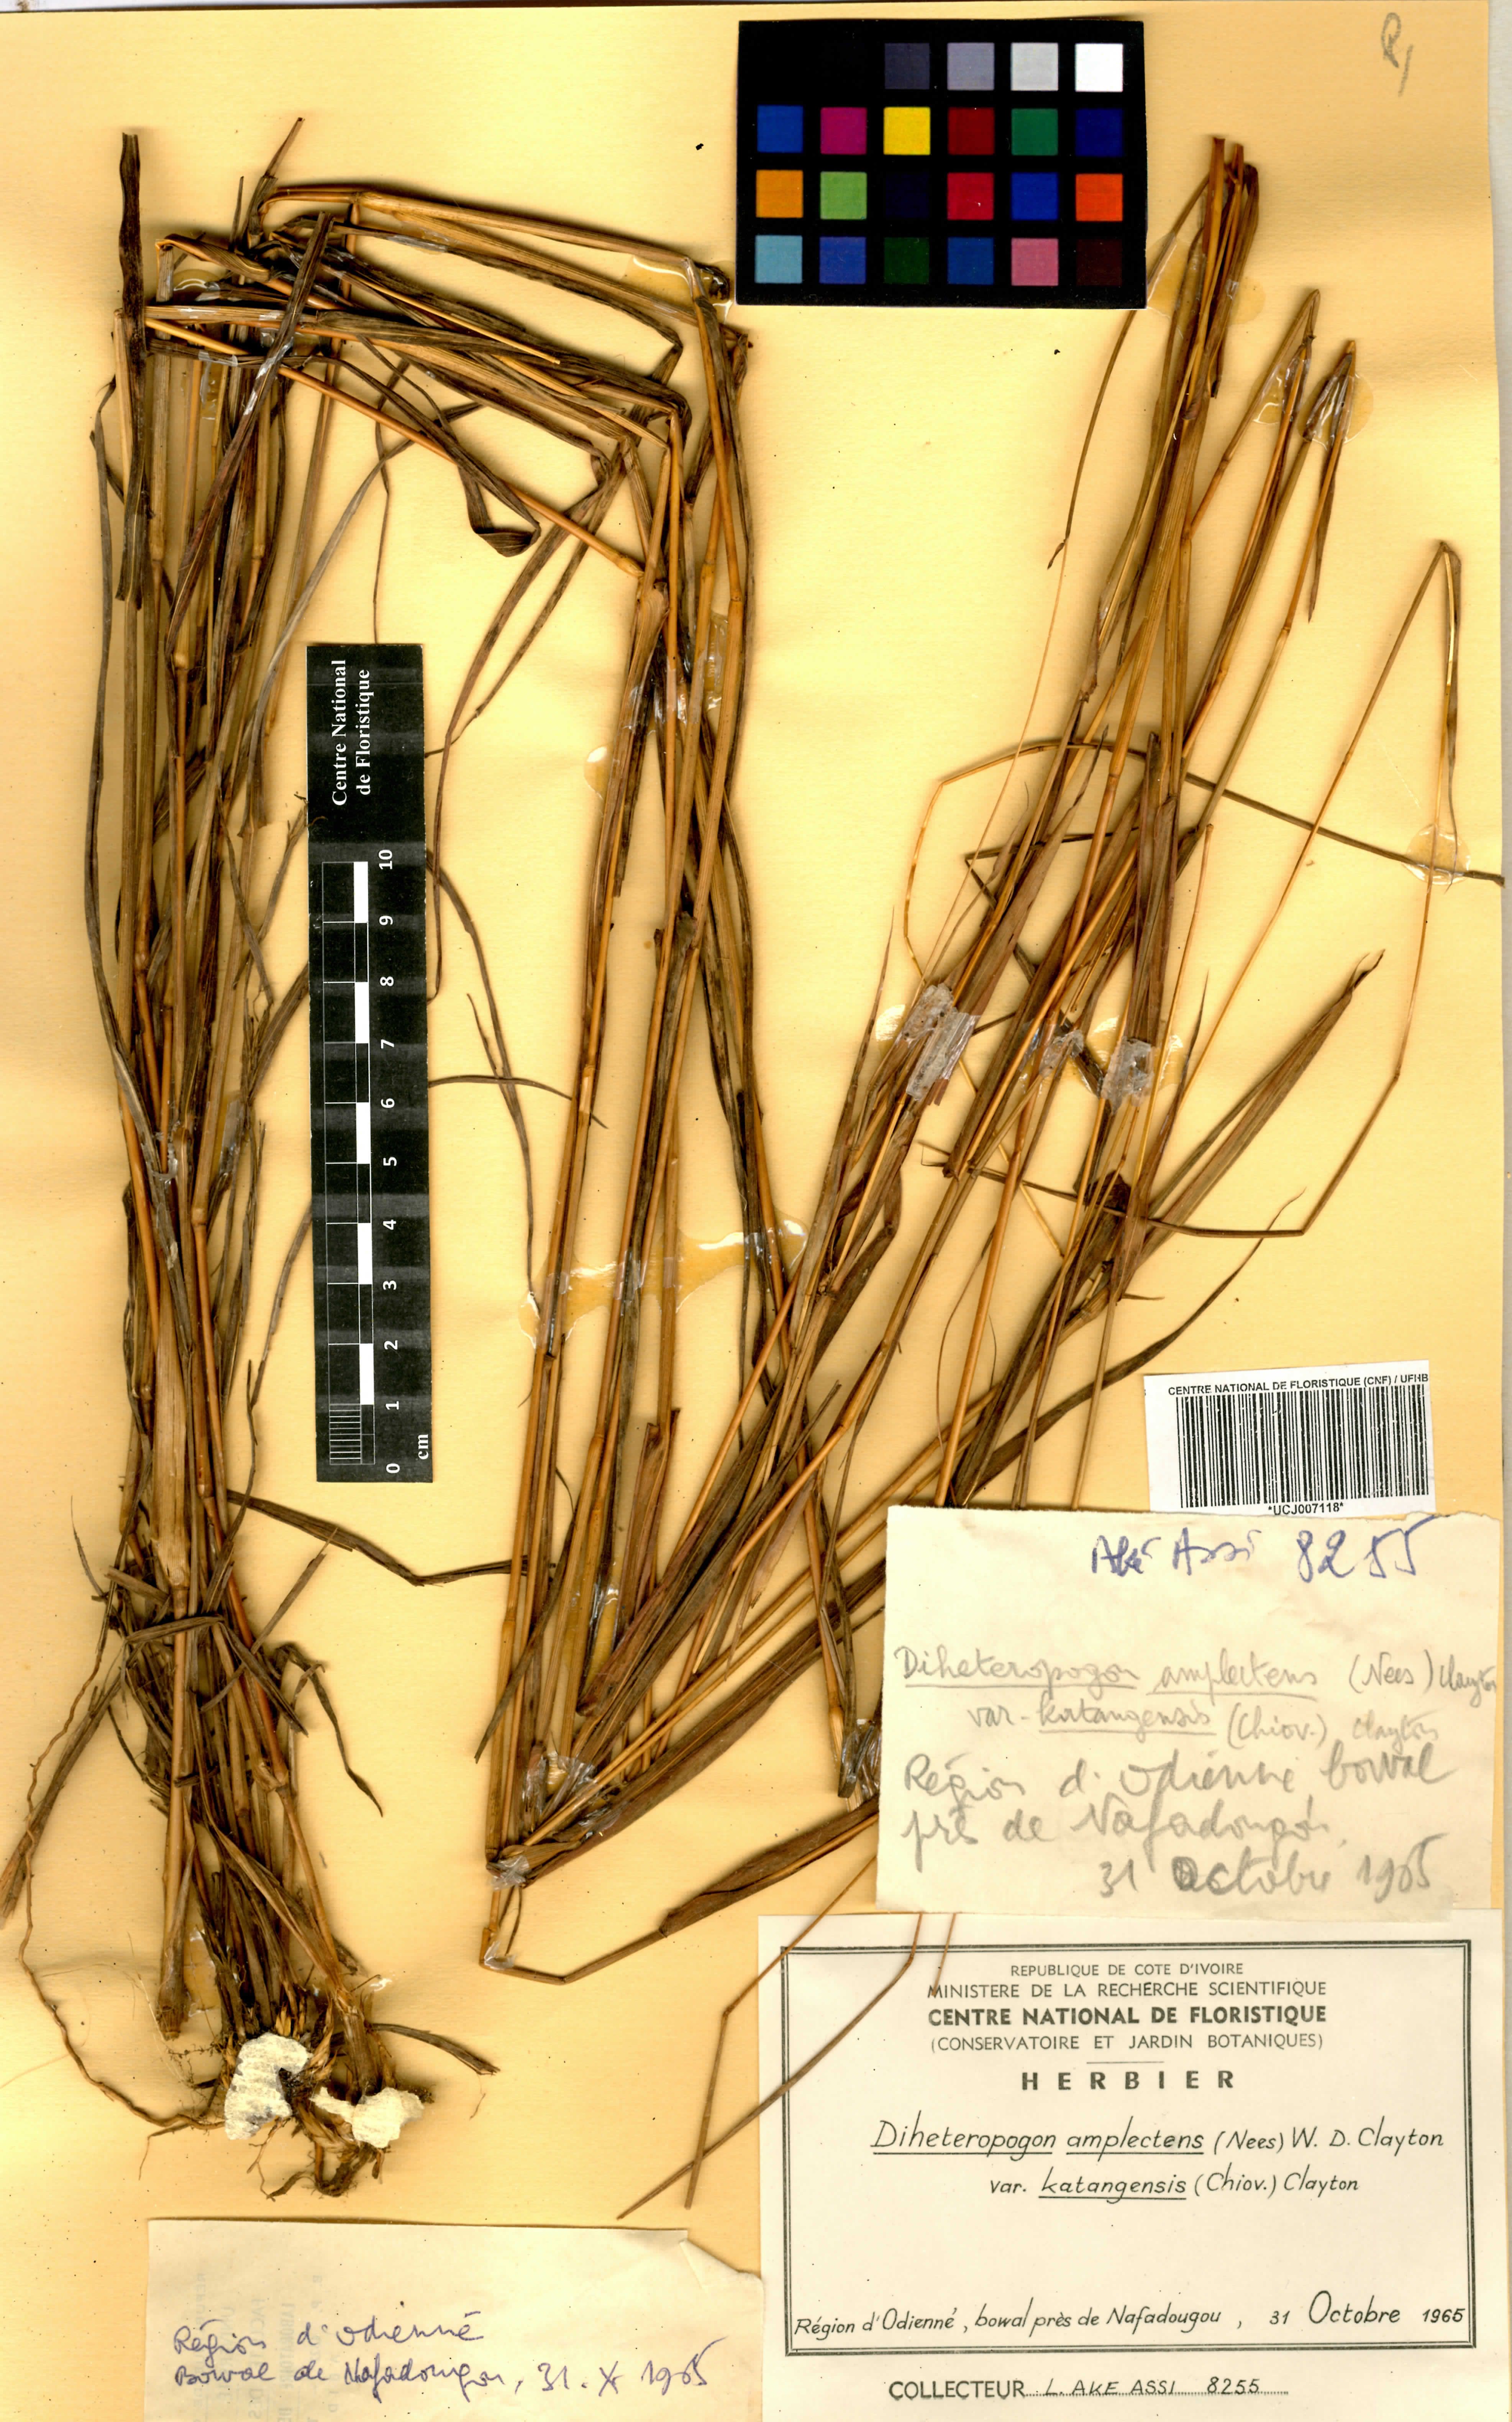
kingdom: Plantae
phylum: Tracheophyta
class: Liliopsida
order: Poales
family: Poaceae
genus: Diheteropogon
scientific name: Diheteropogon amplectens
